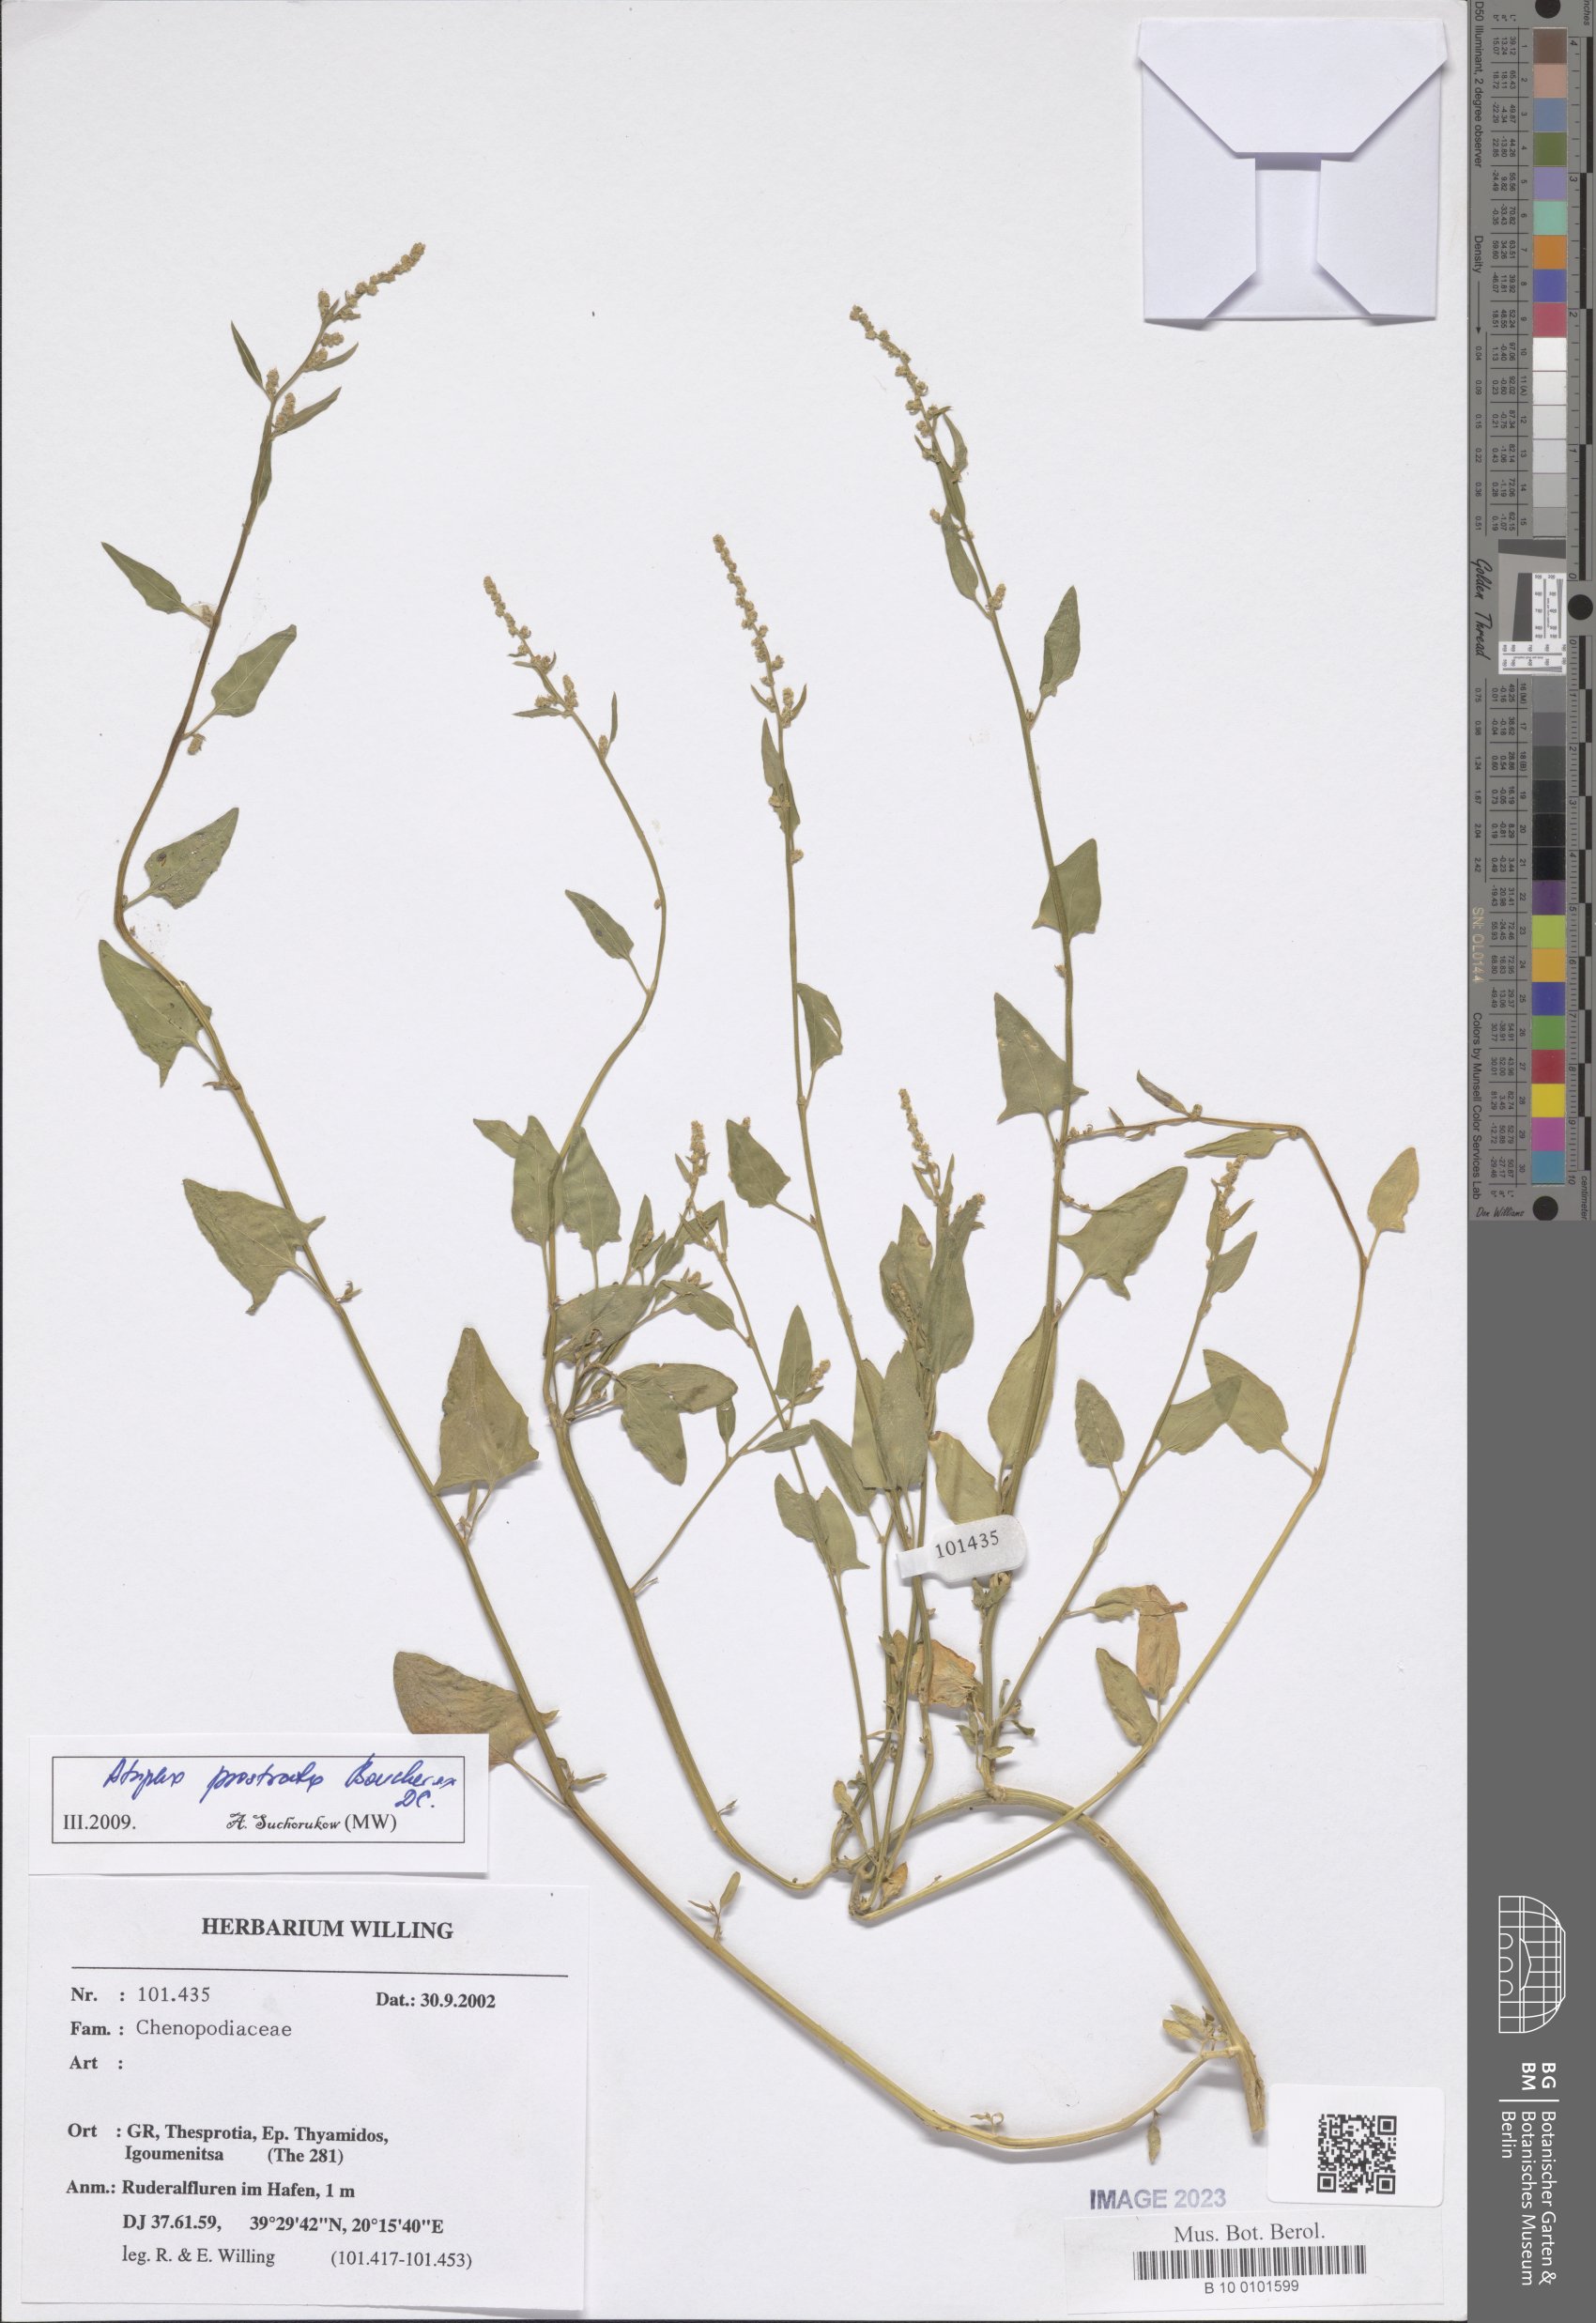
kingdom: Plantae
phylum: Tracheophyta
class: Magnoliopsida
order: Caryophyllales
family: Amaranthaceae
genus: Atriplex
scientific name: Atriplex prostrata
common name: Spear-leaved orache
